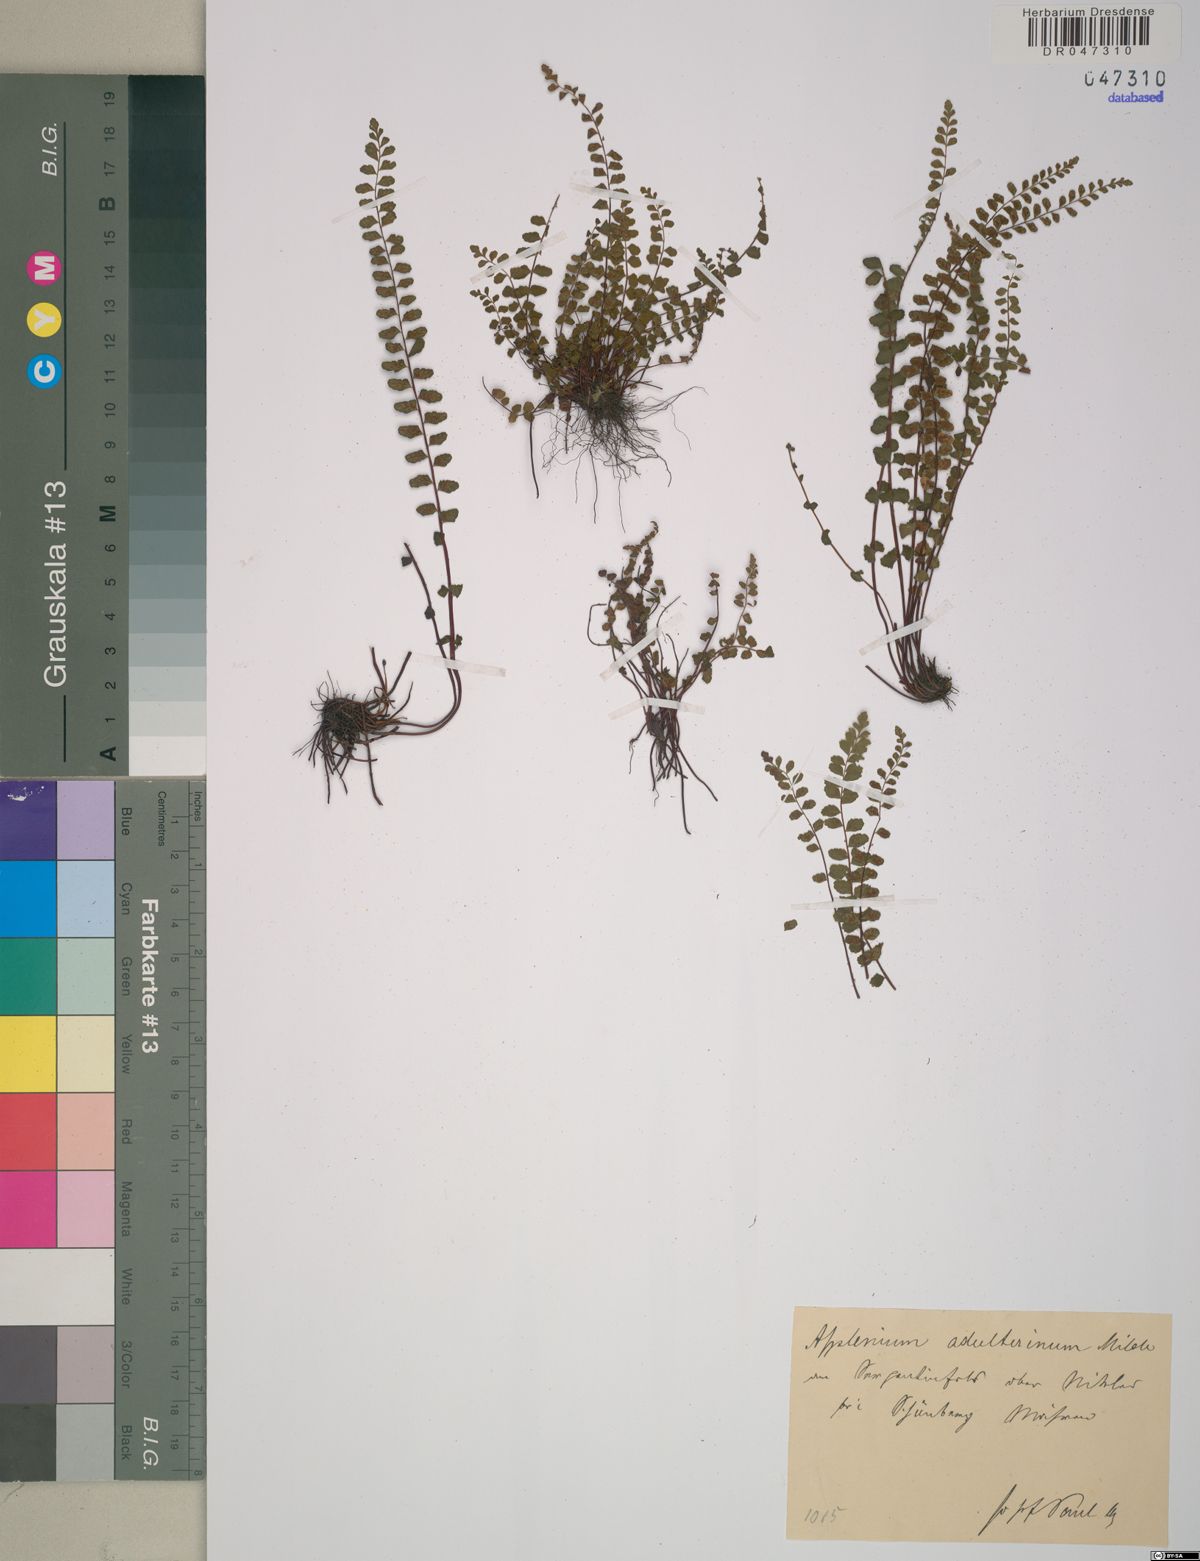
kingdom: Plantae
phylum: Tracheophyta
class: Polypodiopsida
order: Polypodiales
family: Aspleniaceae
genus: Asplenium
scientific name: Asplenium adulterinum
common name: Adulterated spleenwort
